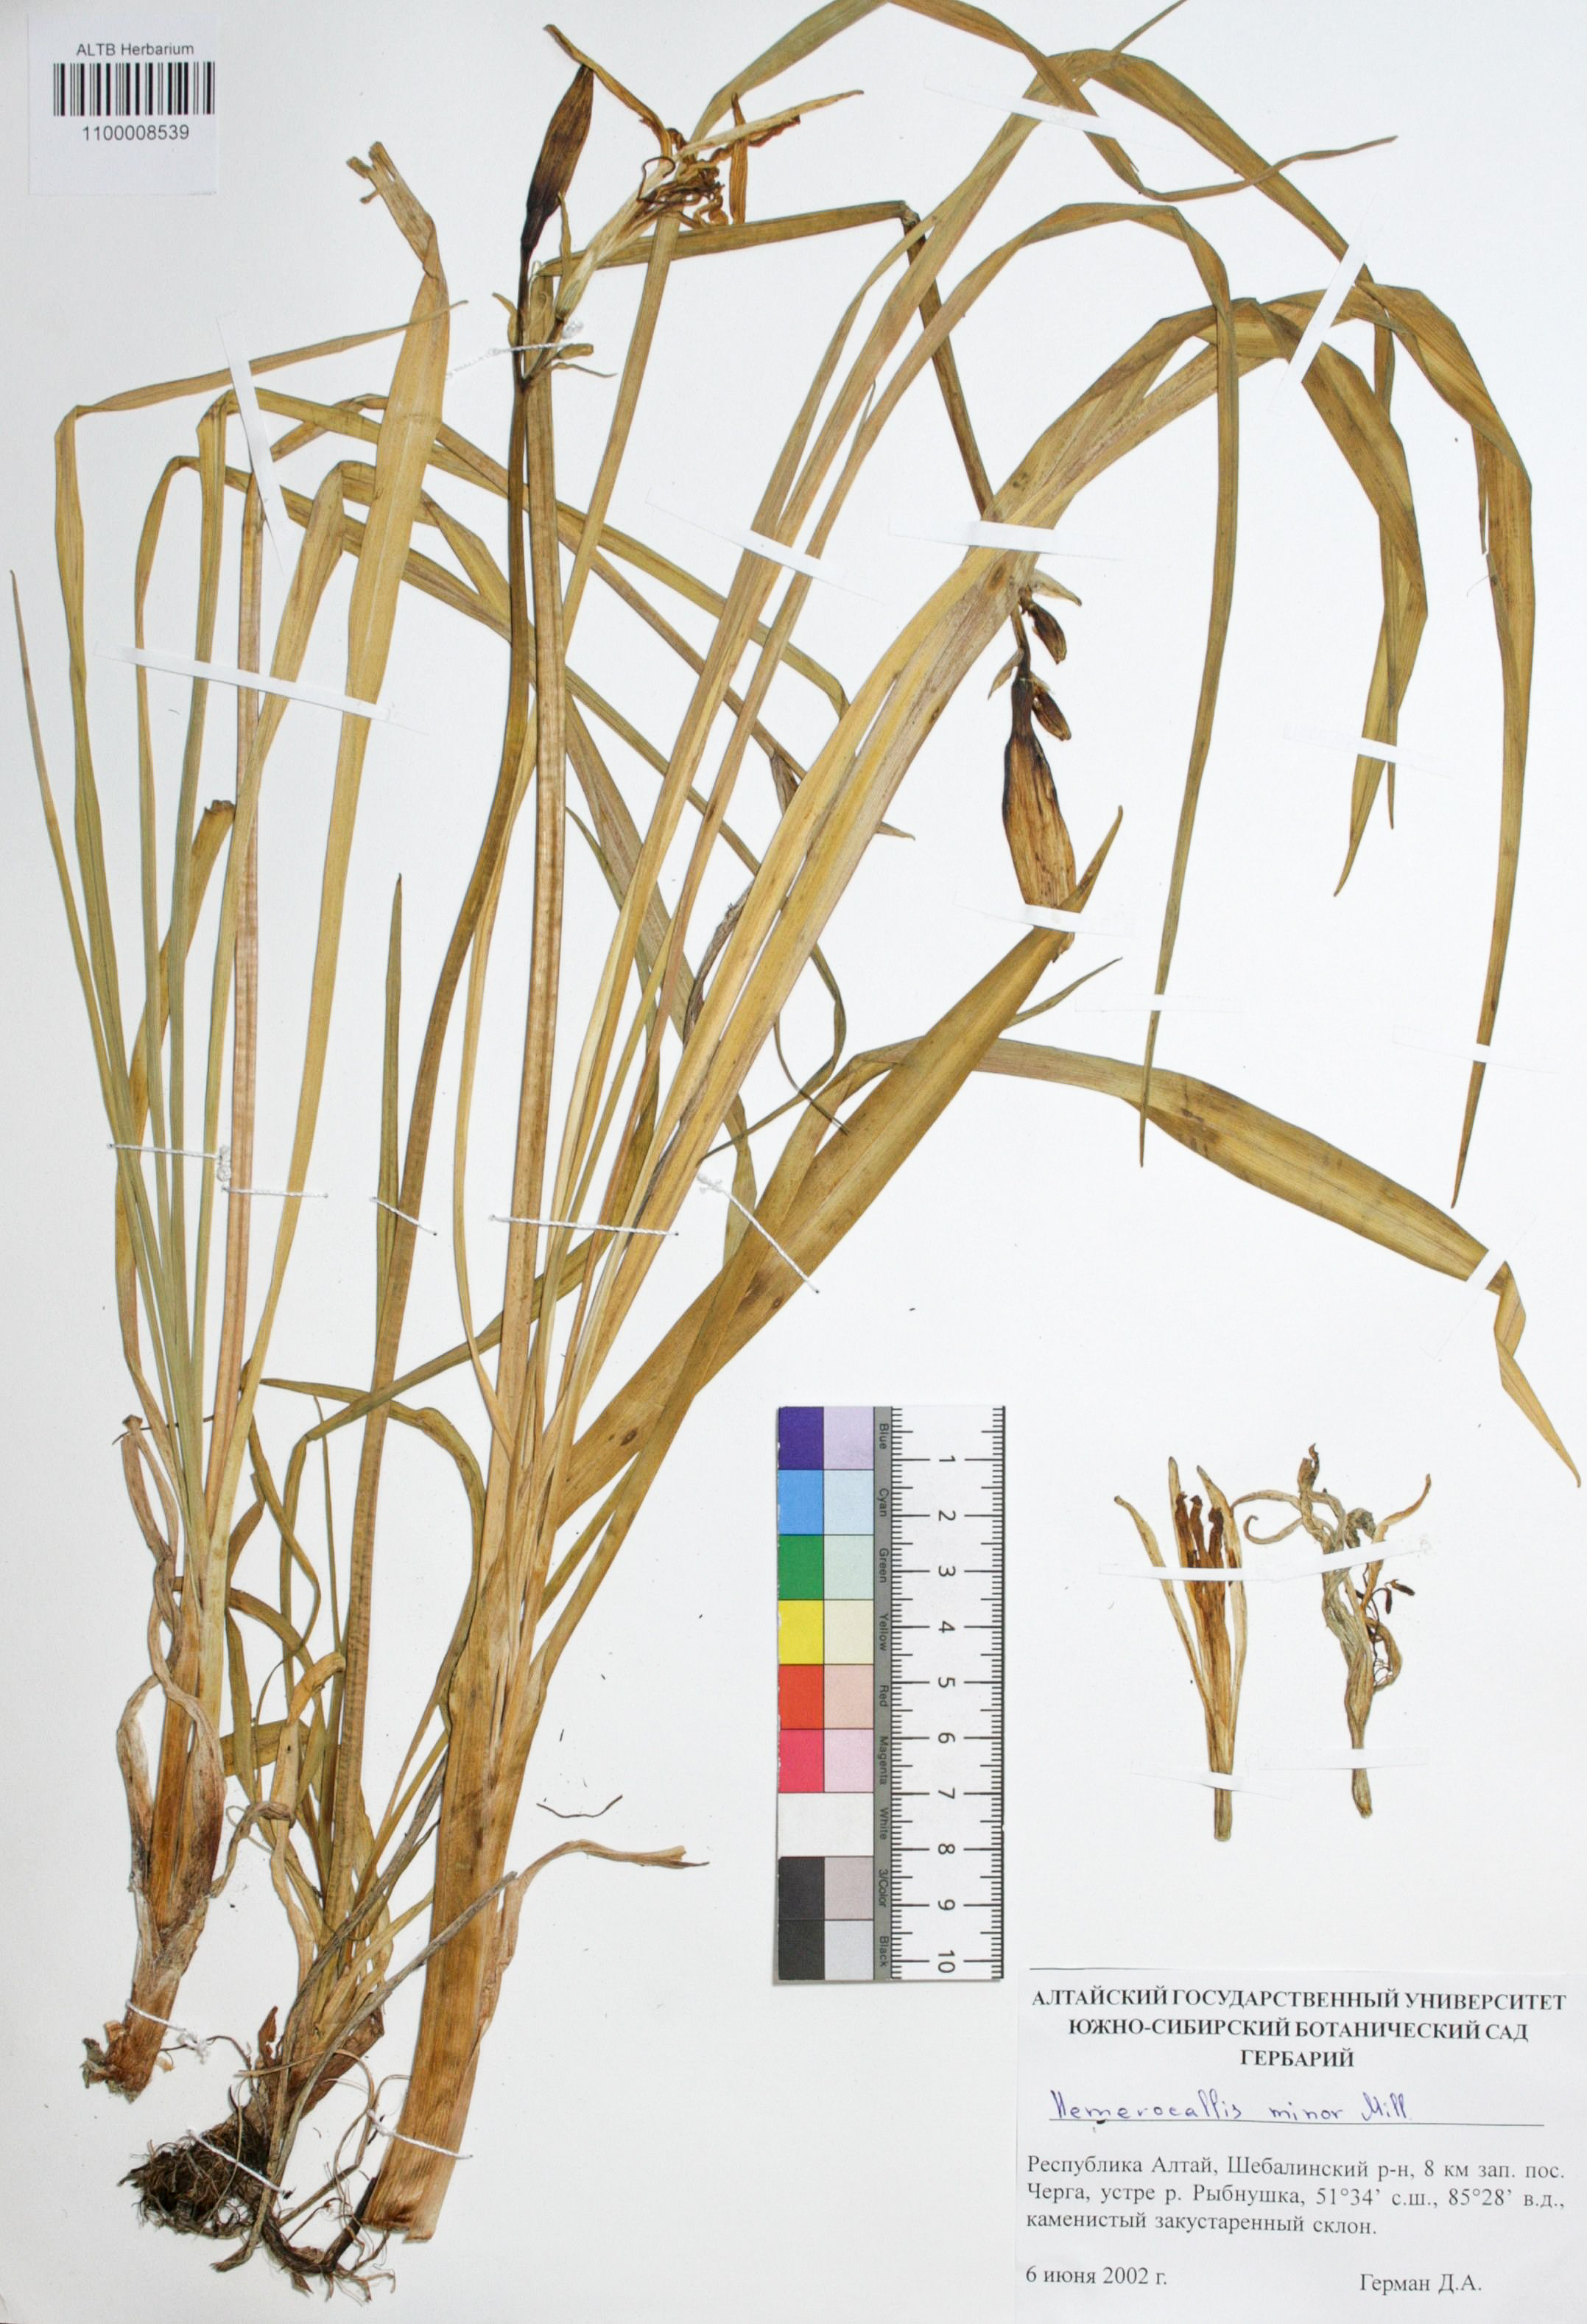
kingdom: Plantae
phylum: Tracheophyta
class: Liliopsida
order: Asparagales
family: Asphodelaceae
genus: Hemerocallis
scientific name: Hemerocallis minor
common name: Small daylily
